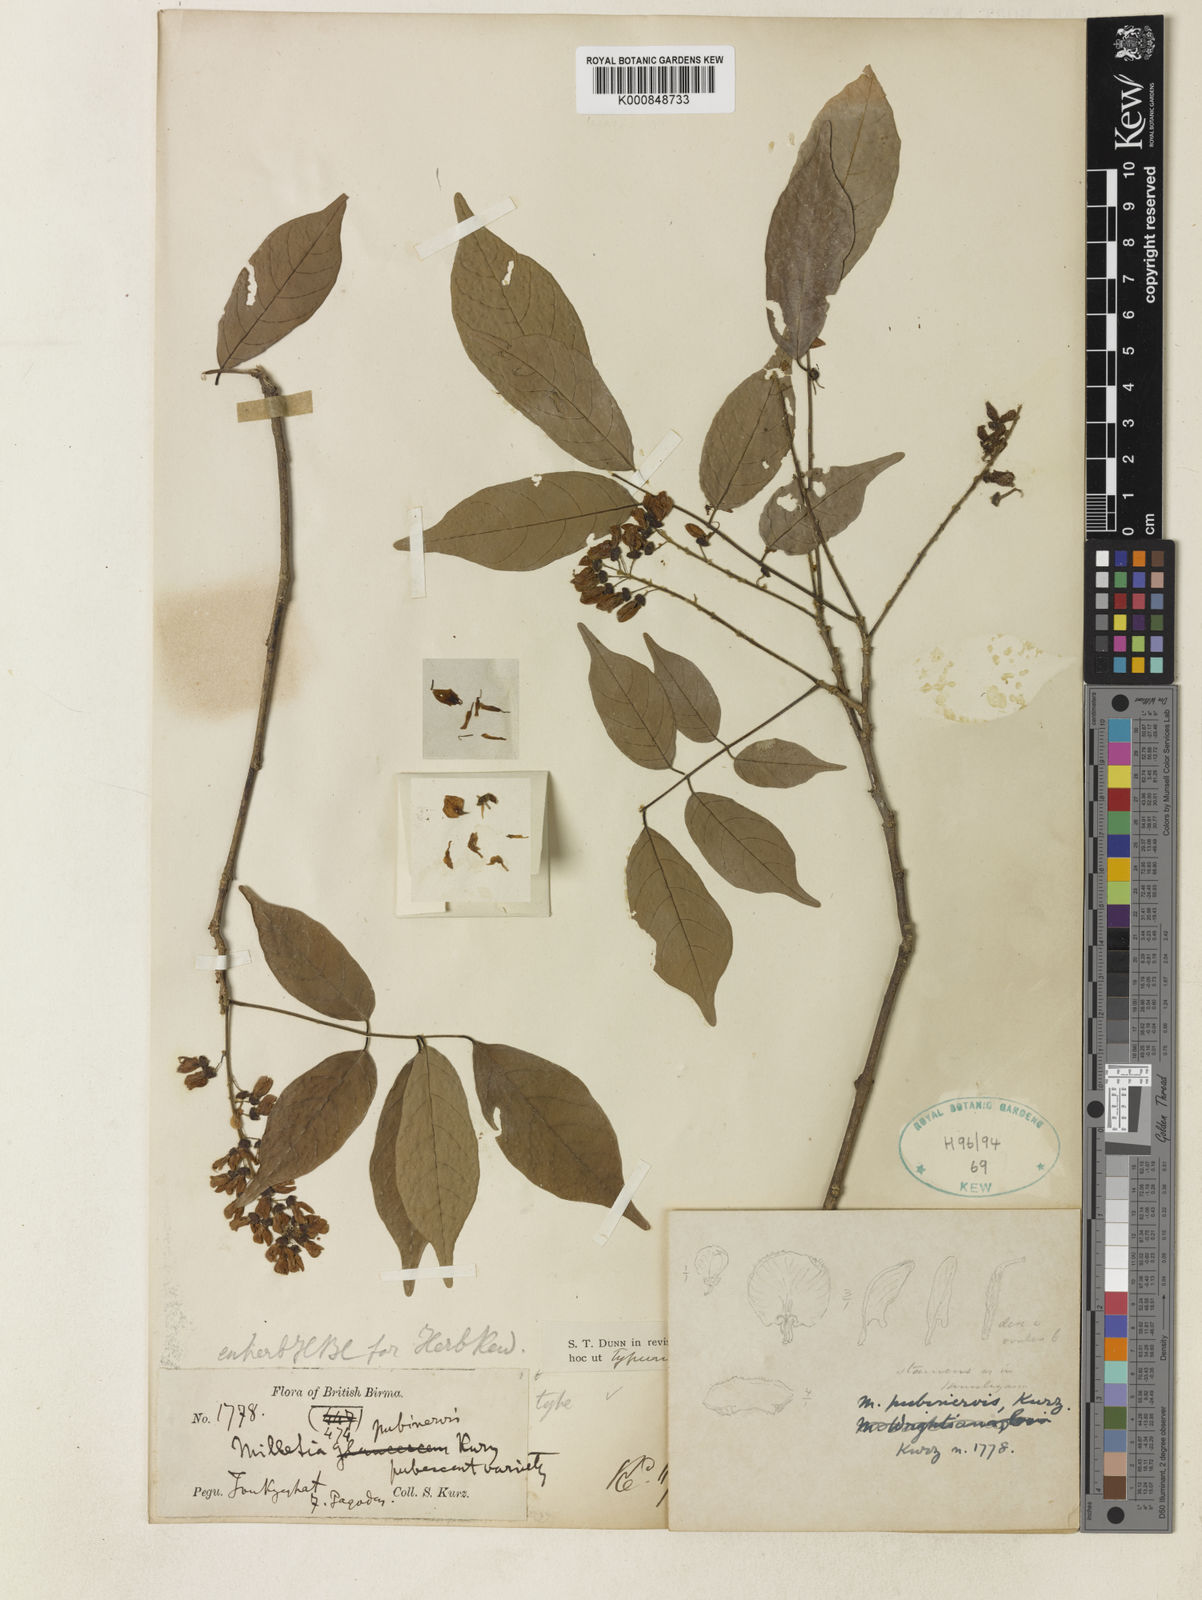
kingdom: Plantae
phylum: Tracheophyta
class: Magnoliopsida
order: Fabales
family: Fabaceae
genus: Millettia
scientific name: Millettia pubinervis
